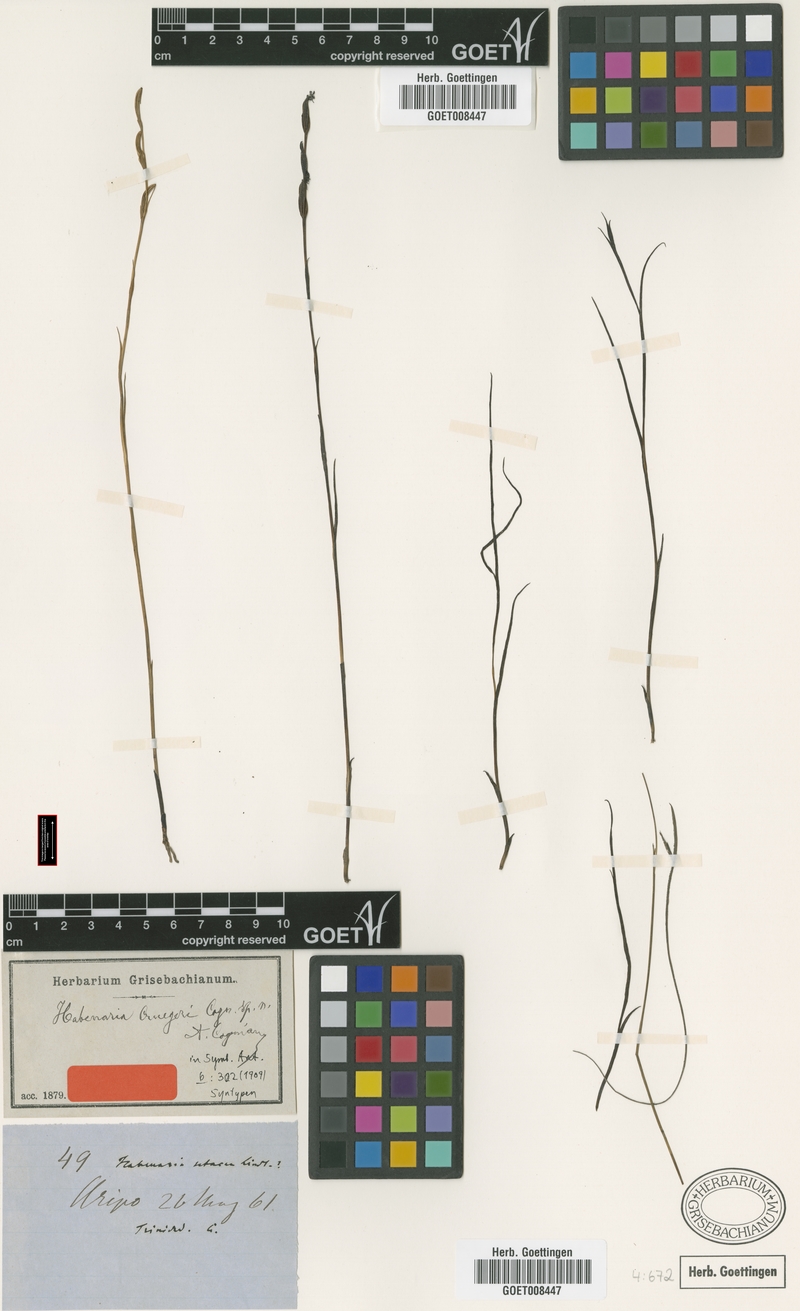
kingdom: Plantae
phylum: Tracheophyta
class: Liliopsida
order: Asparagales
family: Orchidaceae
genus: Habenaria
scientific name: Habenaria mesodactyla
